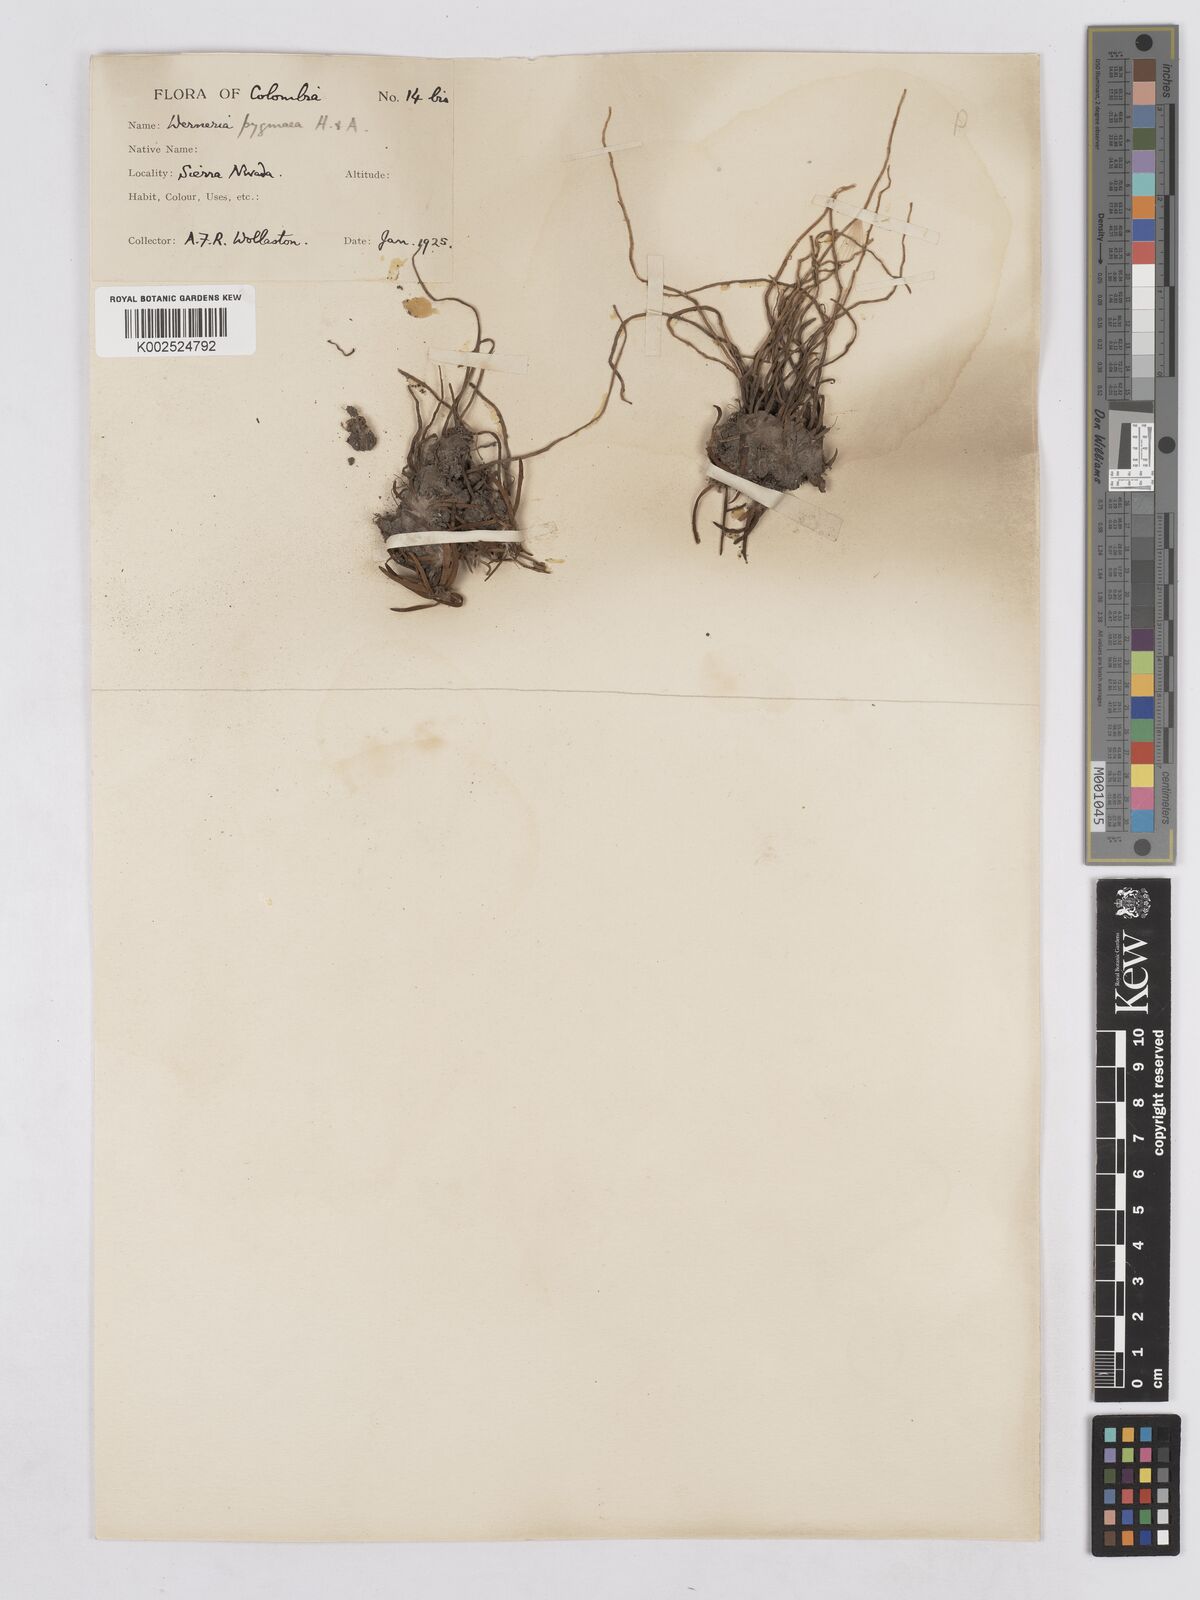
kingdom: Plantae
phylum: Tracheophyta
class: Magnoliopsida
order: Asterales
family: Asteraceae
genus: Rockhausenia
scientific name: Rockhausenia pygmaea
